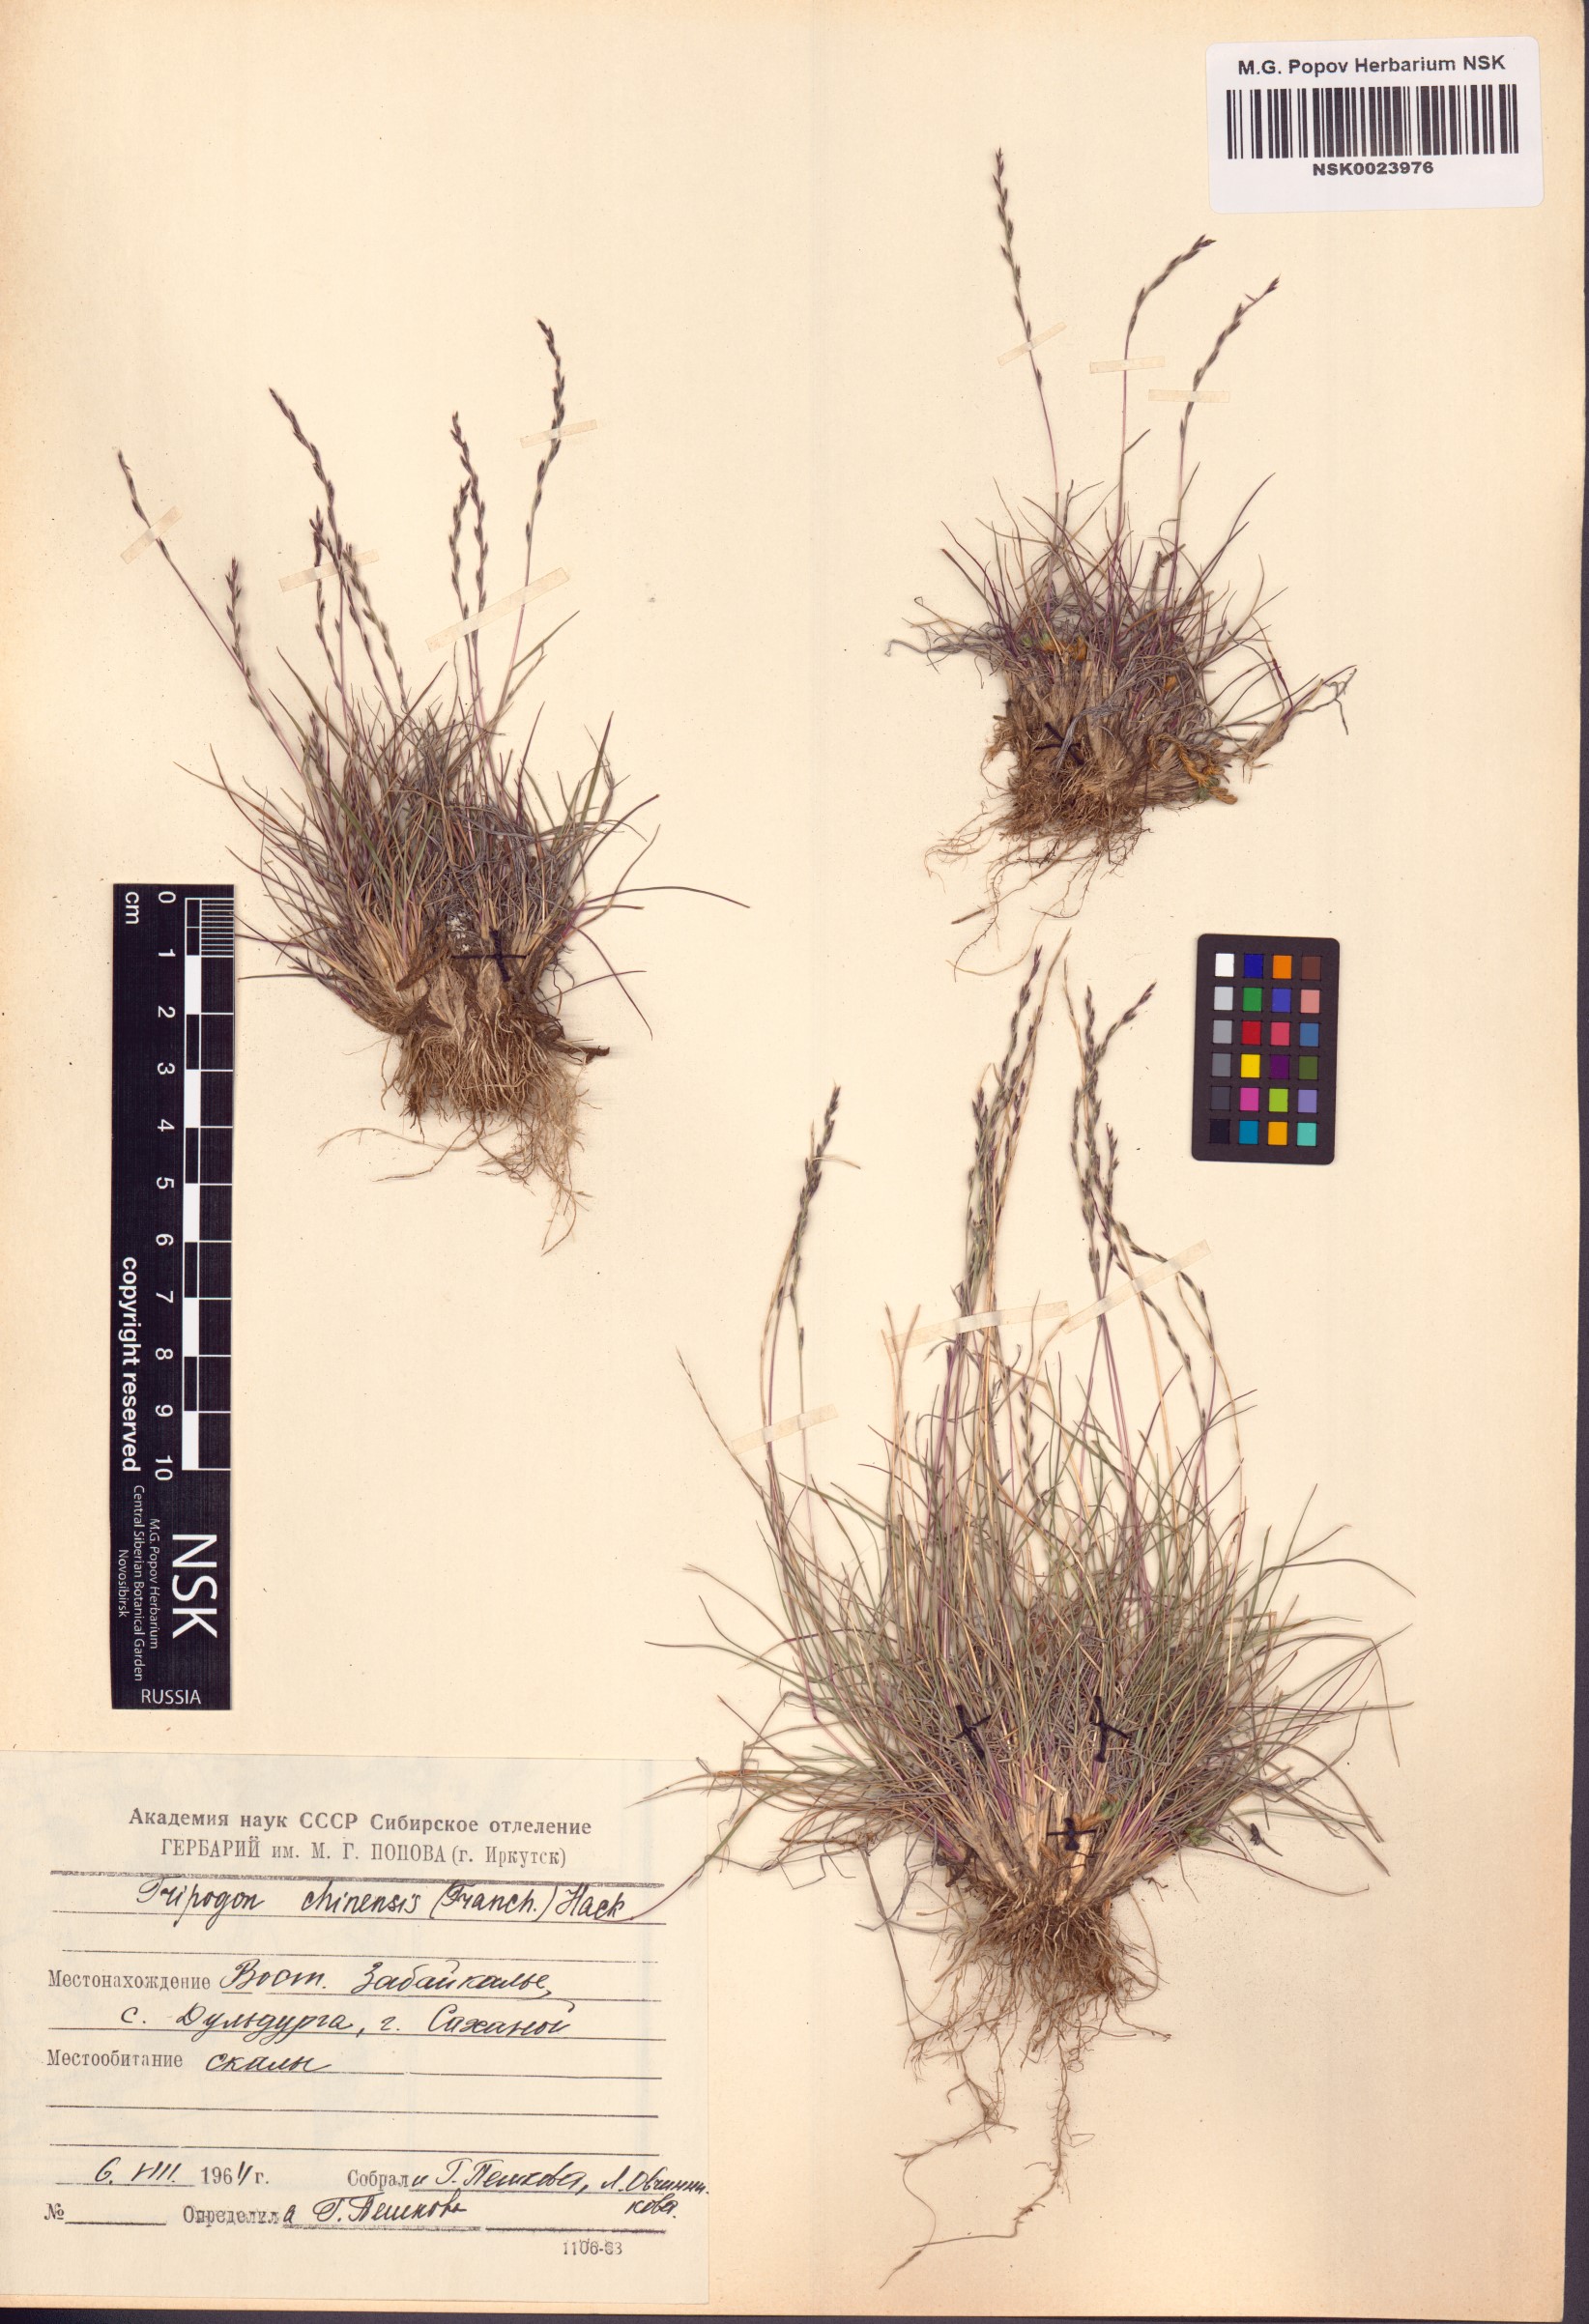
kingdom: Plantae
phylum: Tracheophyta
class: Liliopsida
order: Poales
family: Poaceae
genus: Tripogon
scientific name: Tripogon chinensis
